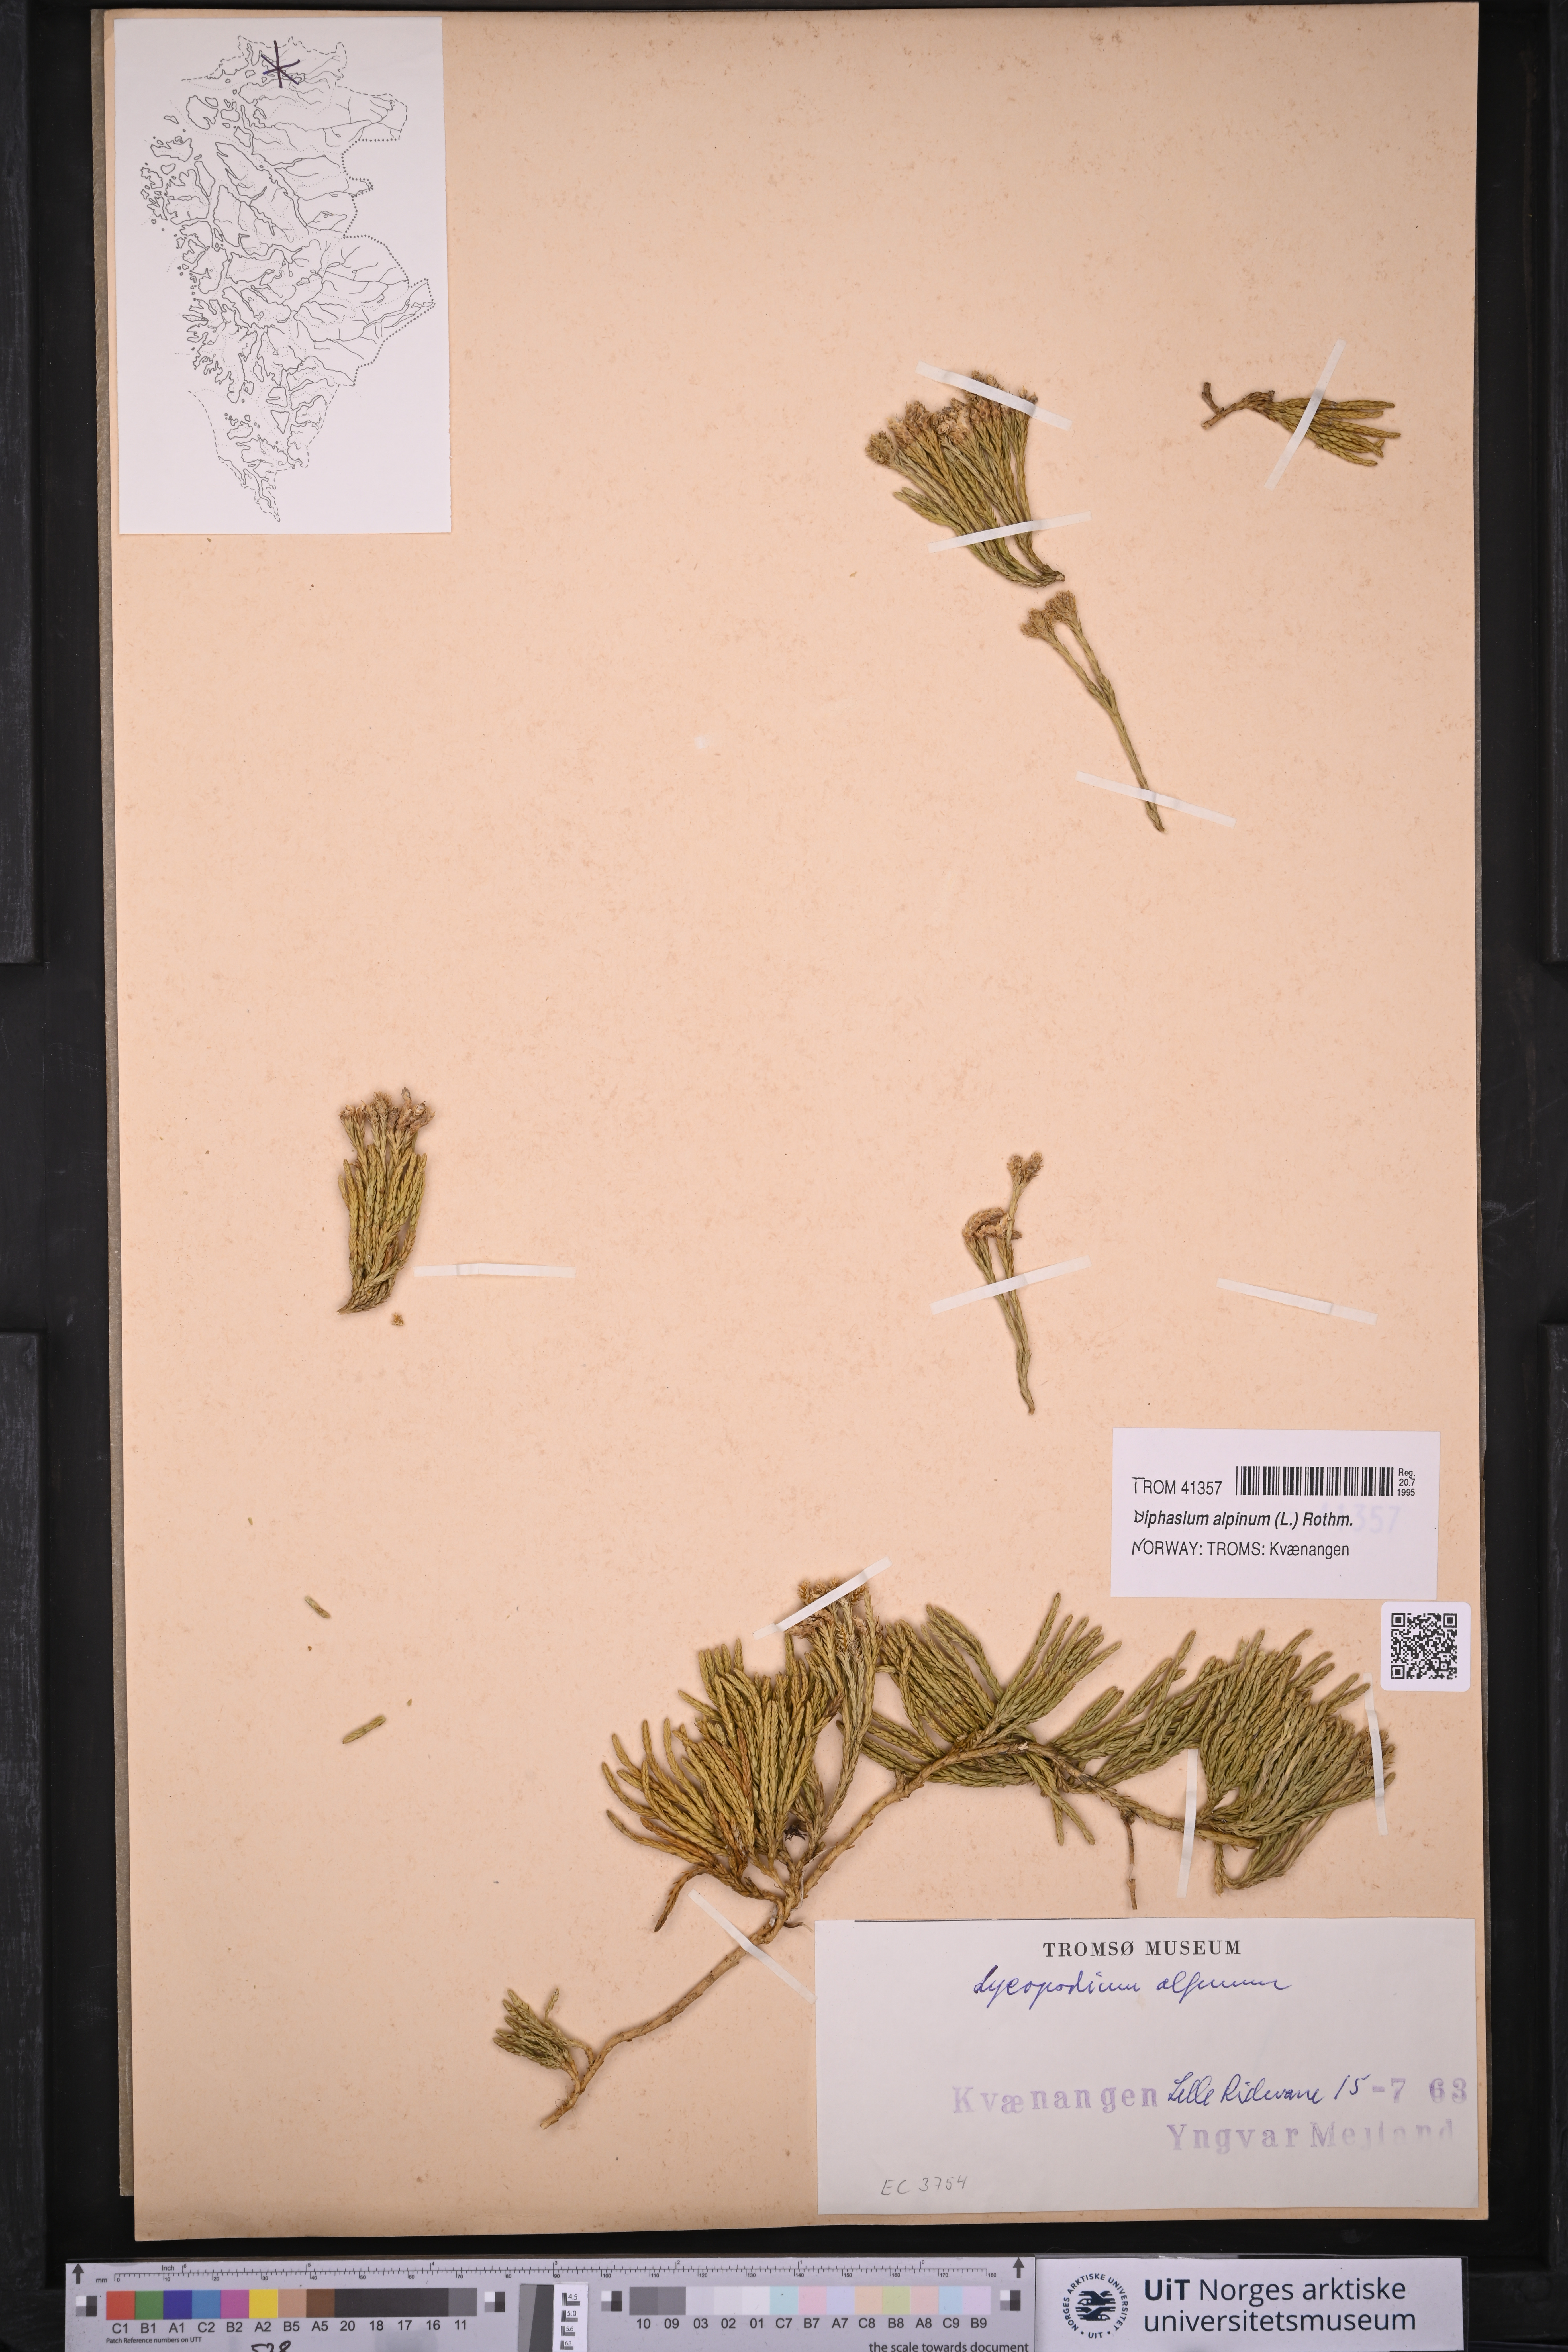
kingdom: Plantae
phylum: Tracheophyta
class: Lycopodiopsida
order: Lycopodiales
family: Lycopodiaceae
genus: Diphasiastrum
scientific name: Diphasiastrum alpinum
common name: Alpine clubmoss
